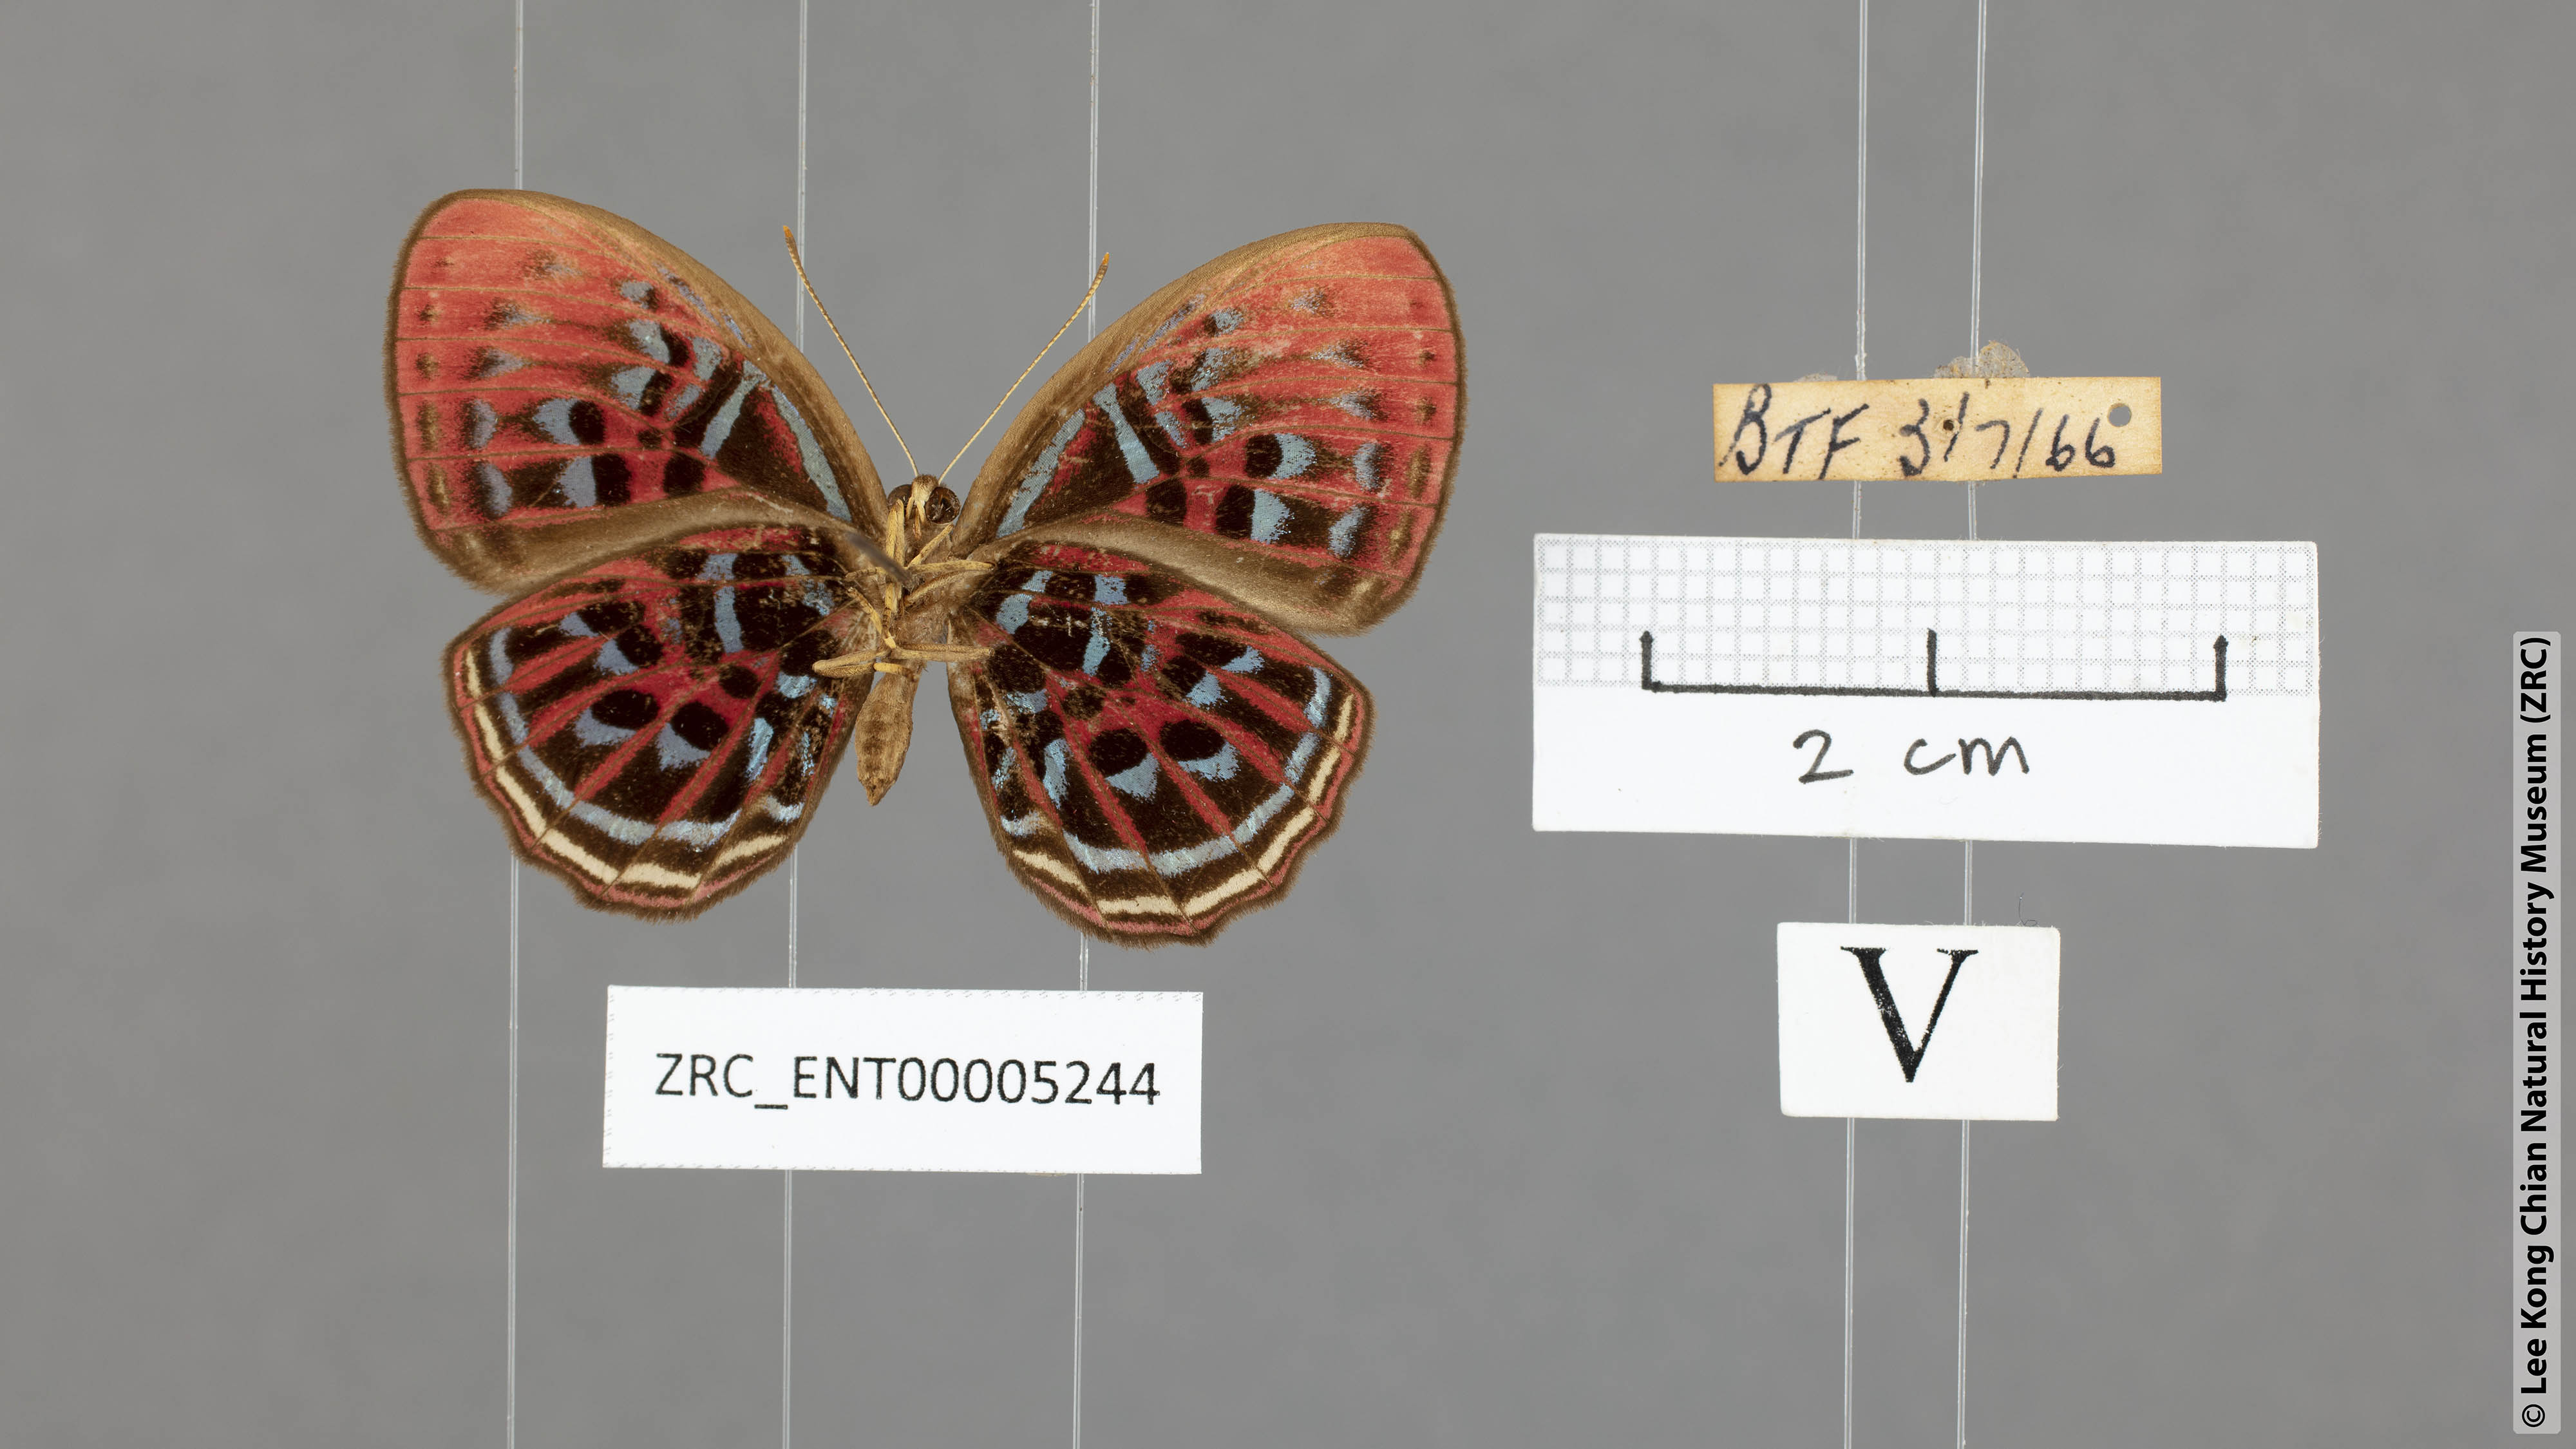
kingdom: Animalia
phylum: Arthropoda
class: Insecta
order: Lepidoptera
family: Riodinidae
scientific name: Riodinidae
